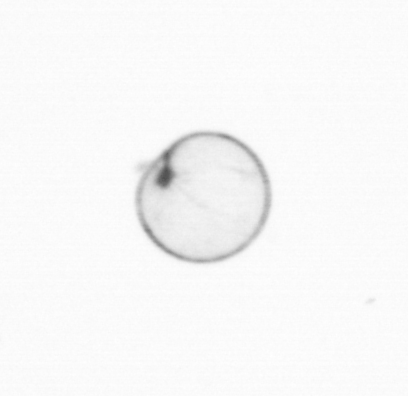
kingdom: Chromista
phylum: Myzozoa
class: Dinophyceae
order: Noctilucales
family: Noctilucaceae
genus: Noctiluca
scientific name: Noctiluca scintillans
